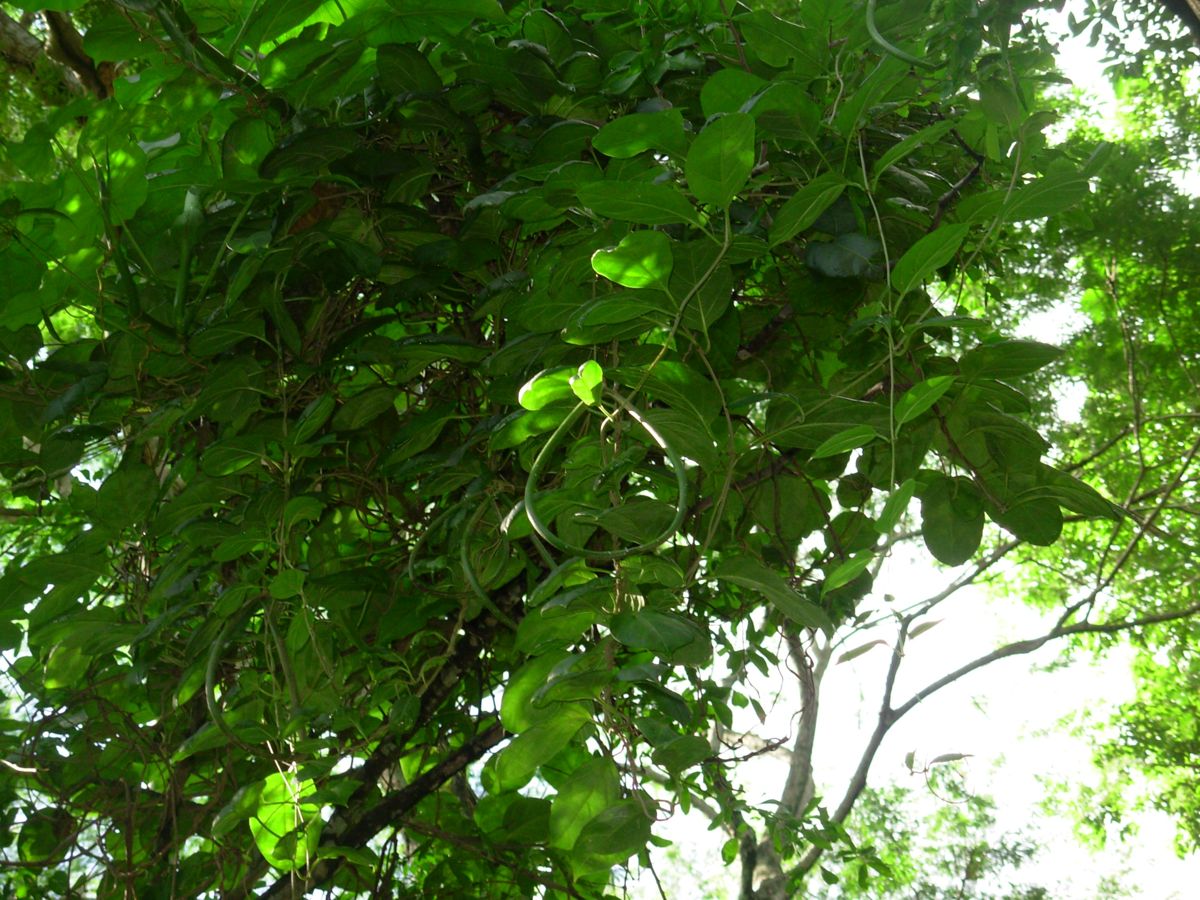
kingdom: Plantae
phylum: Tracheophyta
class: Magnoliopsida
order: Gentianales
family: Apocynaceae
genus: Echites
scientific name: Echites yucatanensis
